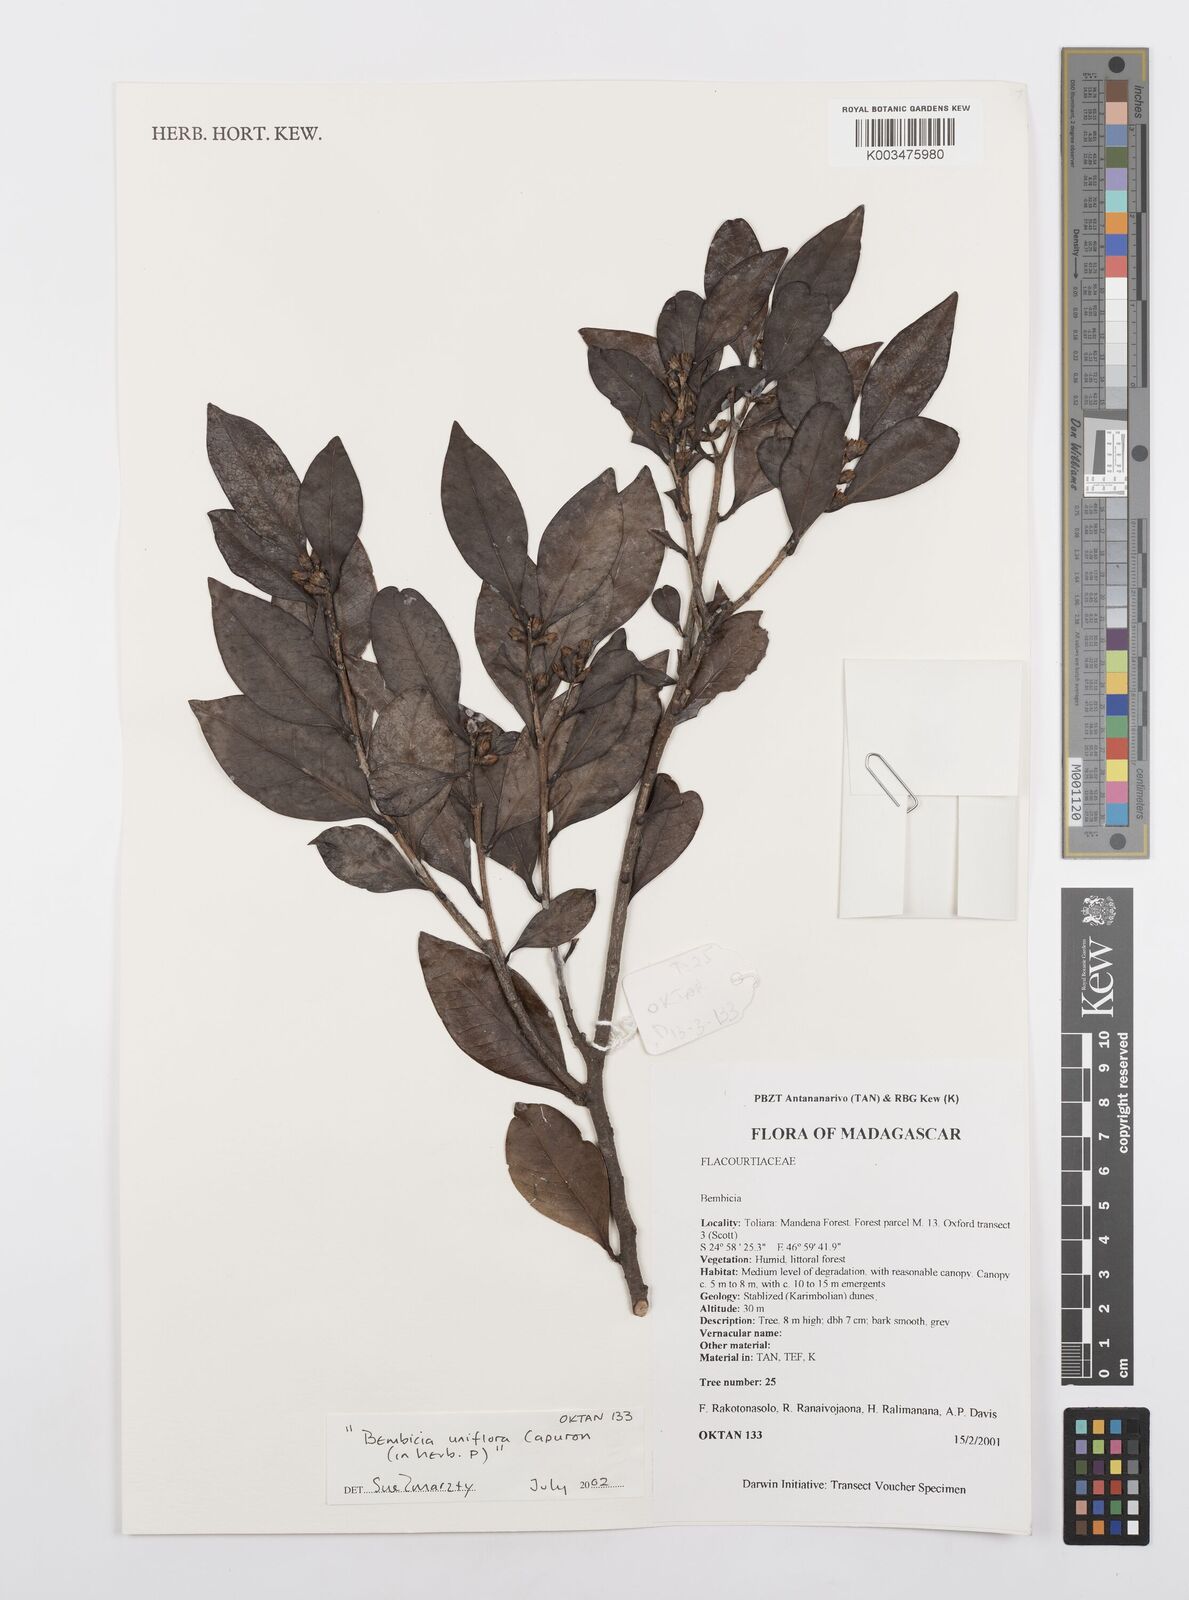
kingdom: Plantae
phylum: Tracheophyta
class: Magnoliopsida
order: Malpighiales
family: Salicaceae
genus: Bembicia
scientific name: Bembicia
